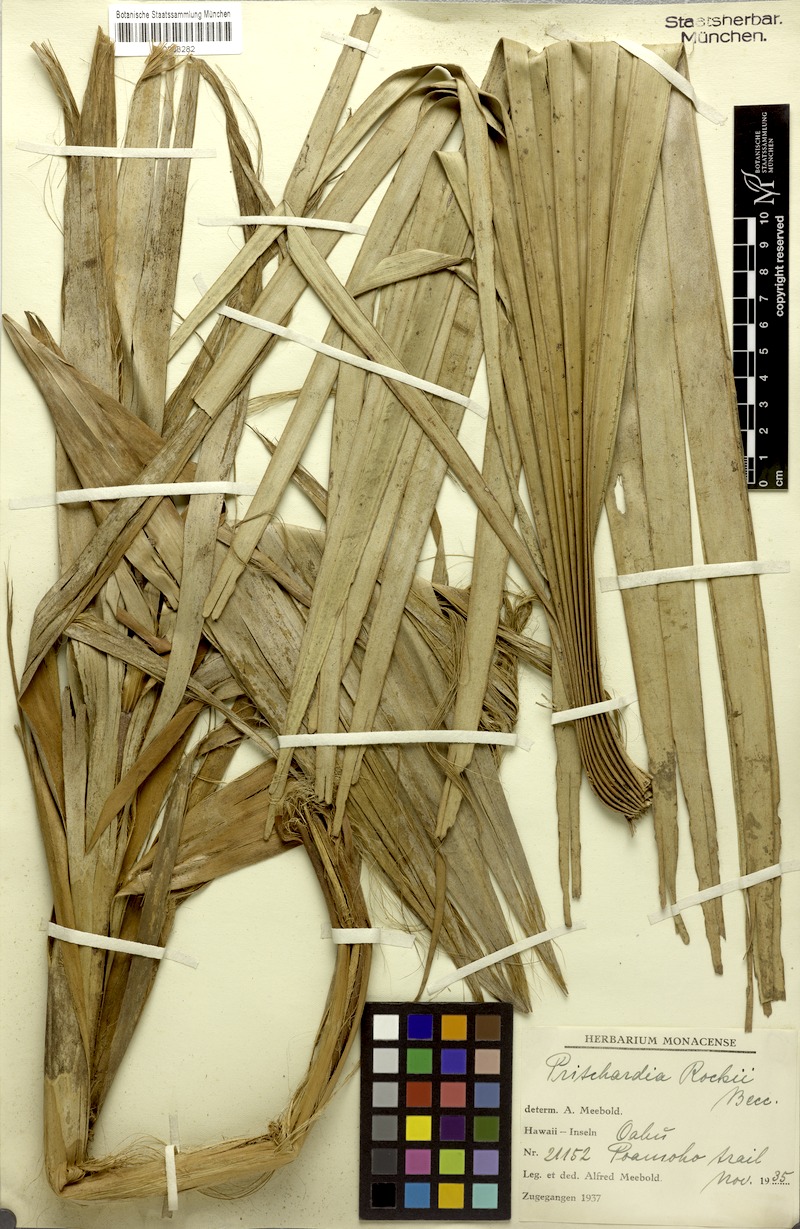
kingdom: Plantae
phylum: Tracheophyta
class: Liliopsida
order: Arecales
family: Arecaceae
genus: Pritchardia
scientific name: Pritchardia martii
